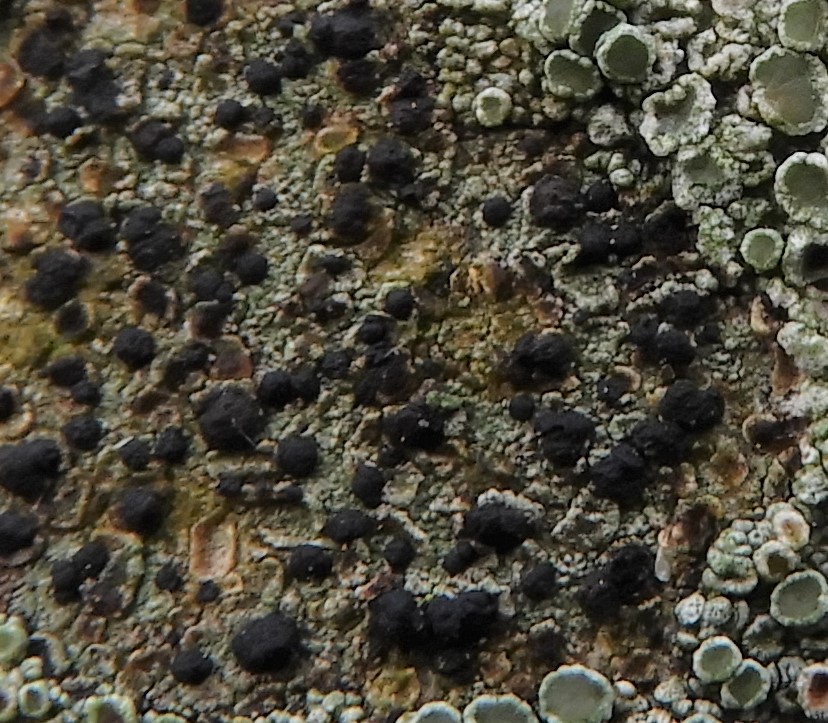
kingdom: Fungi
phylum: Ascomycota
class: Lecanoromycetes
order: Lecanorales
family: Lecanoraceae
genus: Lecidella
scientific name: Lecidella elaeochroma
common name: grågrøn skivelav
